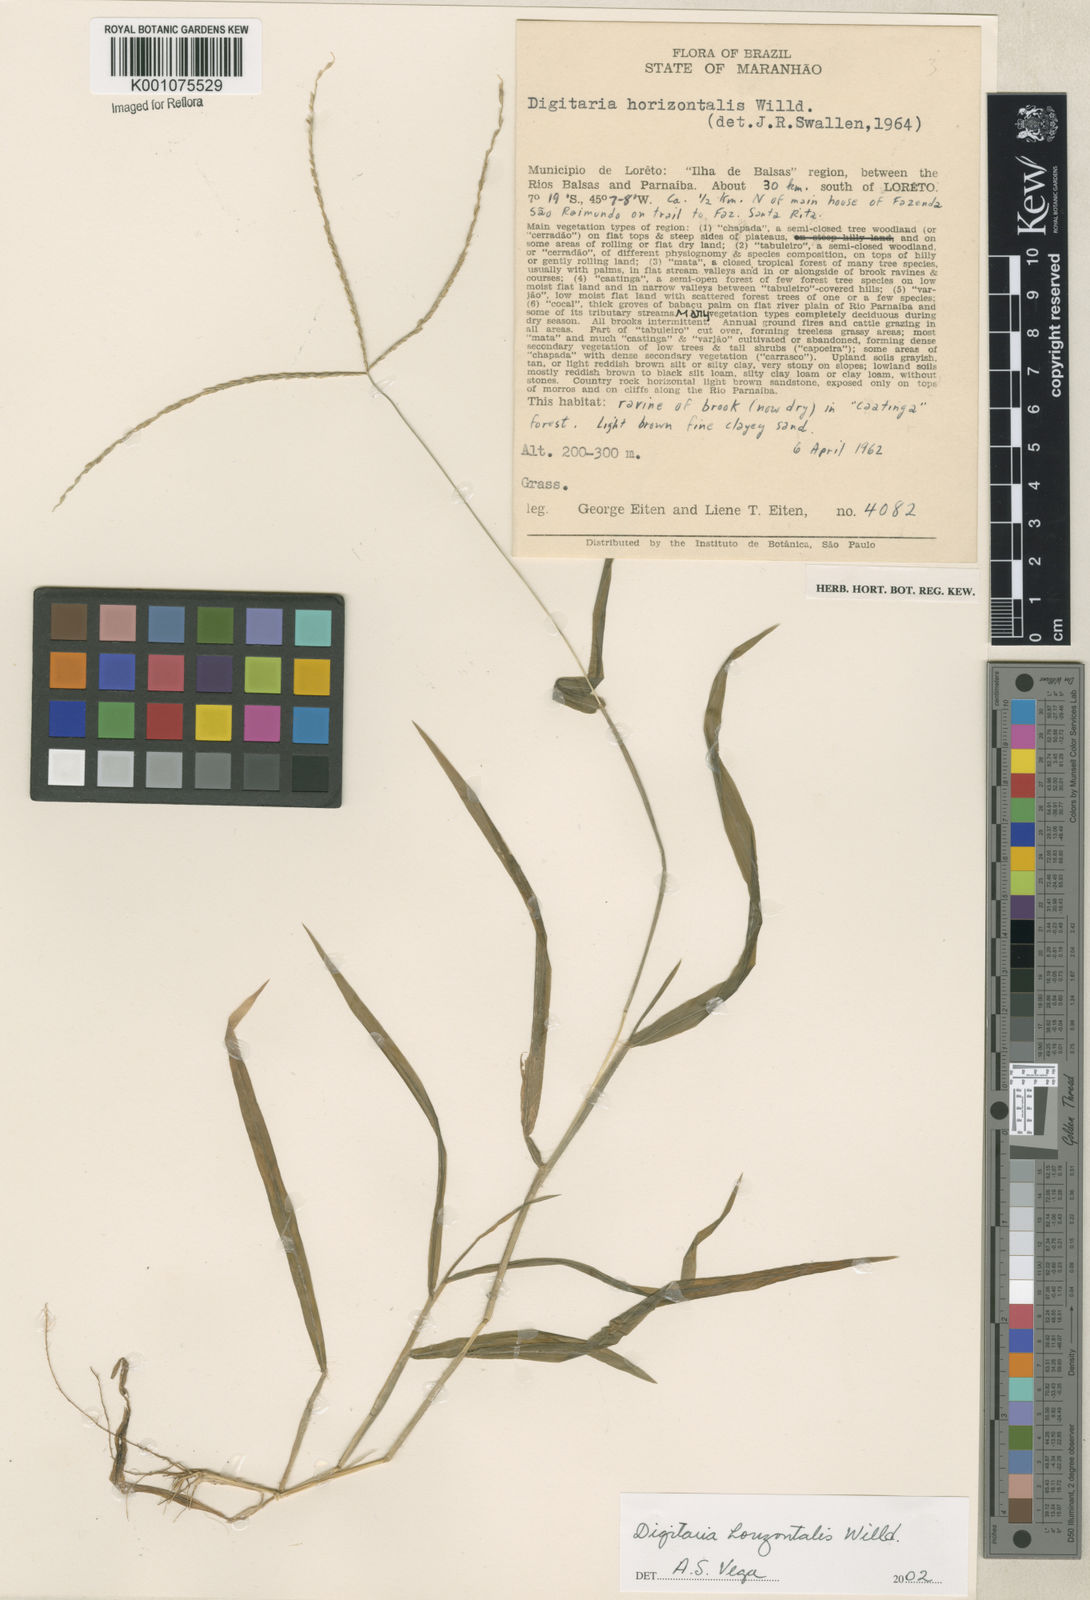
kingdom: Plantae
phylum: Tracheophyta
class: Liliopsida
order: Poales
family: Poaceae
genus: Digitaria
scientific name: Digitaria horizontalis
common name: Jamaican crabgrass
